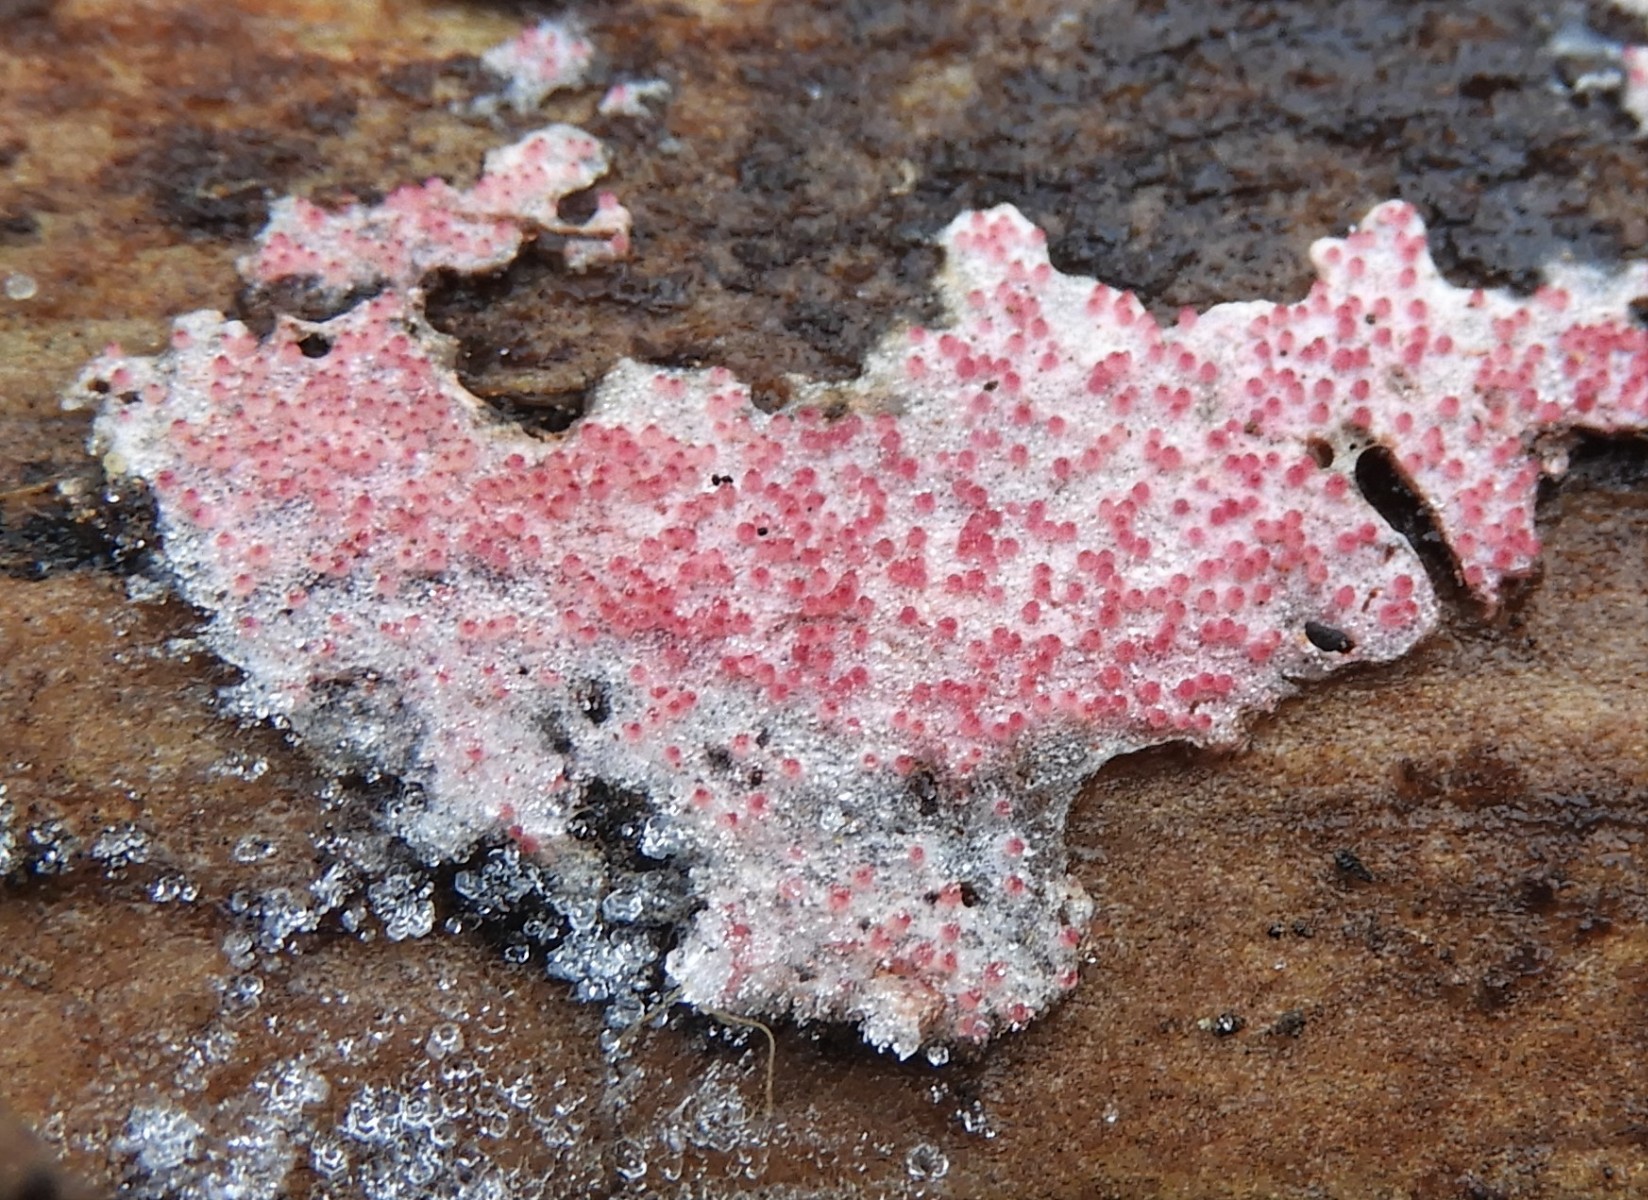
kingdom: Fungi
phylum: Ascomycota
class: Sordariomycetes
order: Hypocreales
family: Hypocreaceae
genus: Hypomyces
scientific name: Hypomyces rosellus
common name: rosa snylteskorpe
